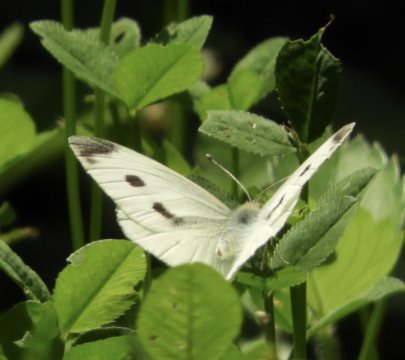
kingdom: Animalia
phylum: Arthropoda
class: Insecta
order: Lepidoptera
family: Pieridae
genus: Pieris
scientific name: Pieris rapae
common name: Cabbage White
